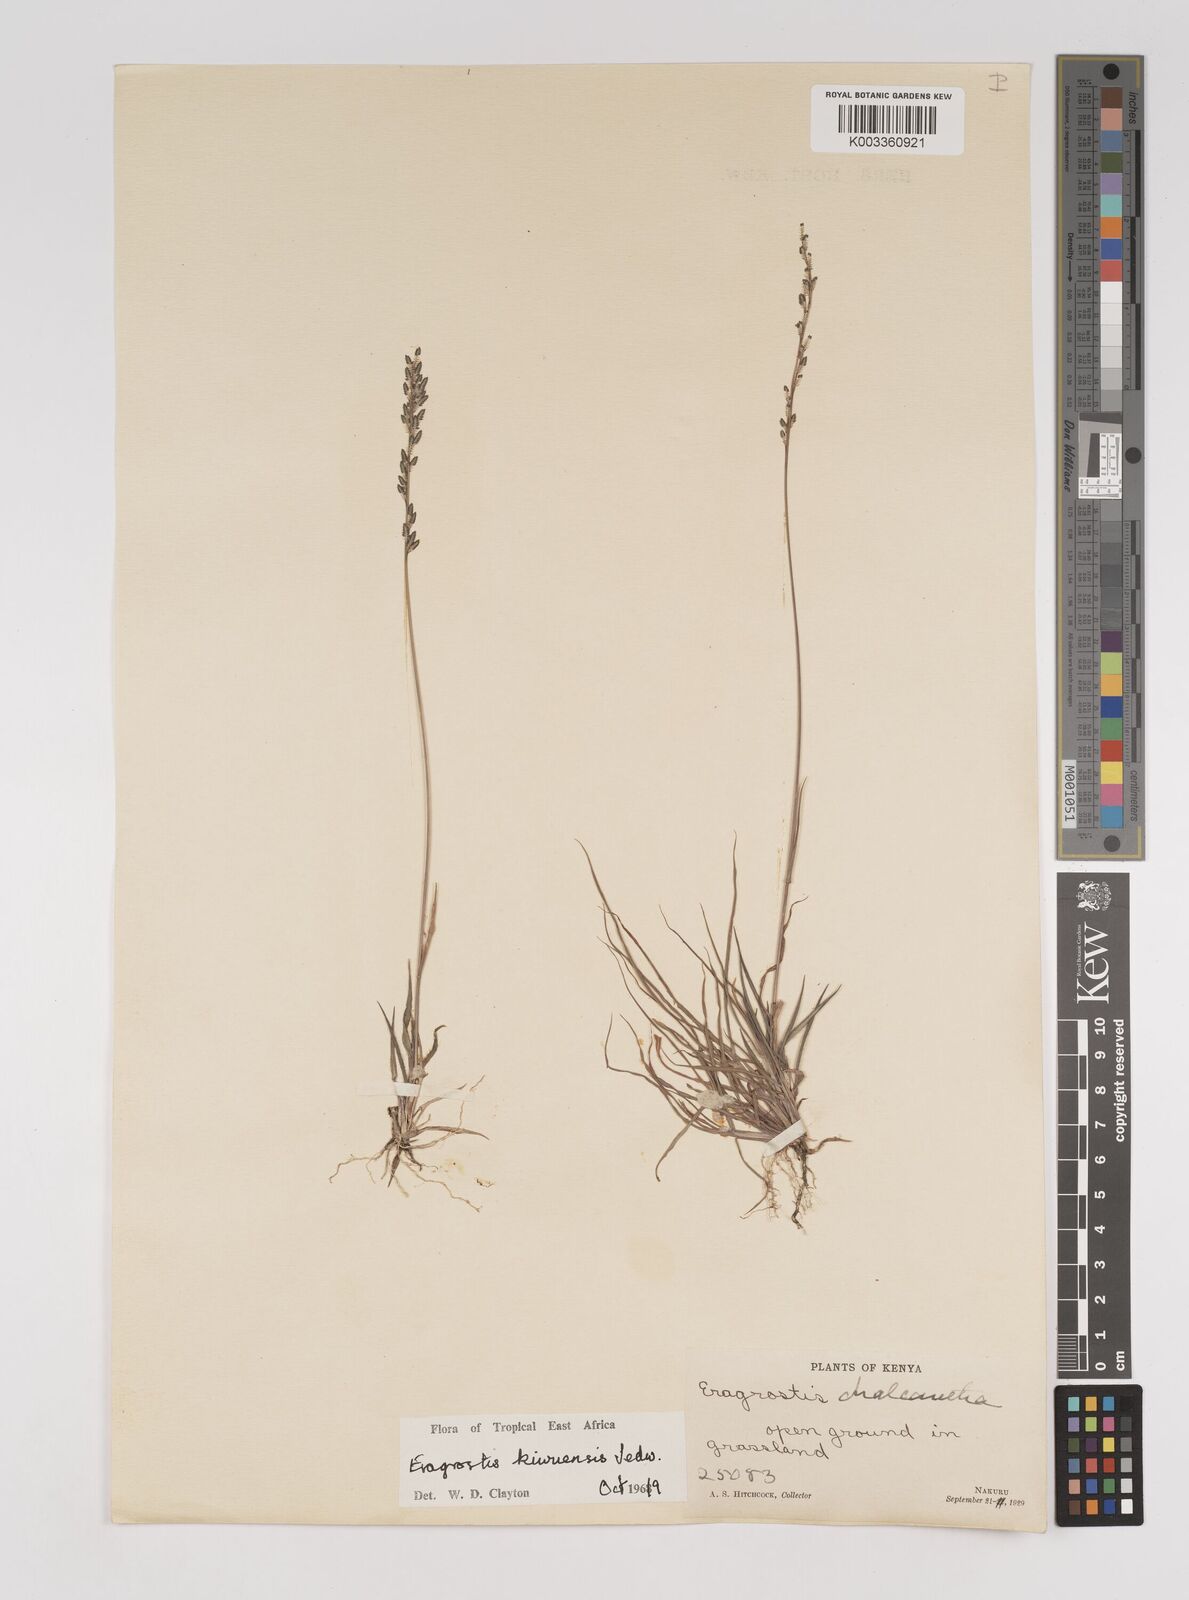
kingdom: Plantae
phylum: Tracheophyta
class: Liliopsida
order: Poales
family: Poaceae
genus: Eragrostis
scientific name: Eragrostis schweinfurthii
